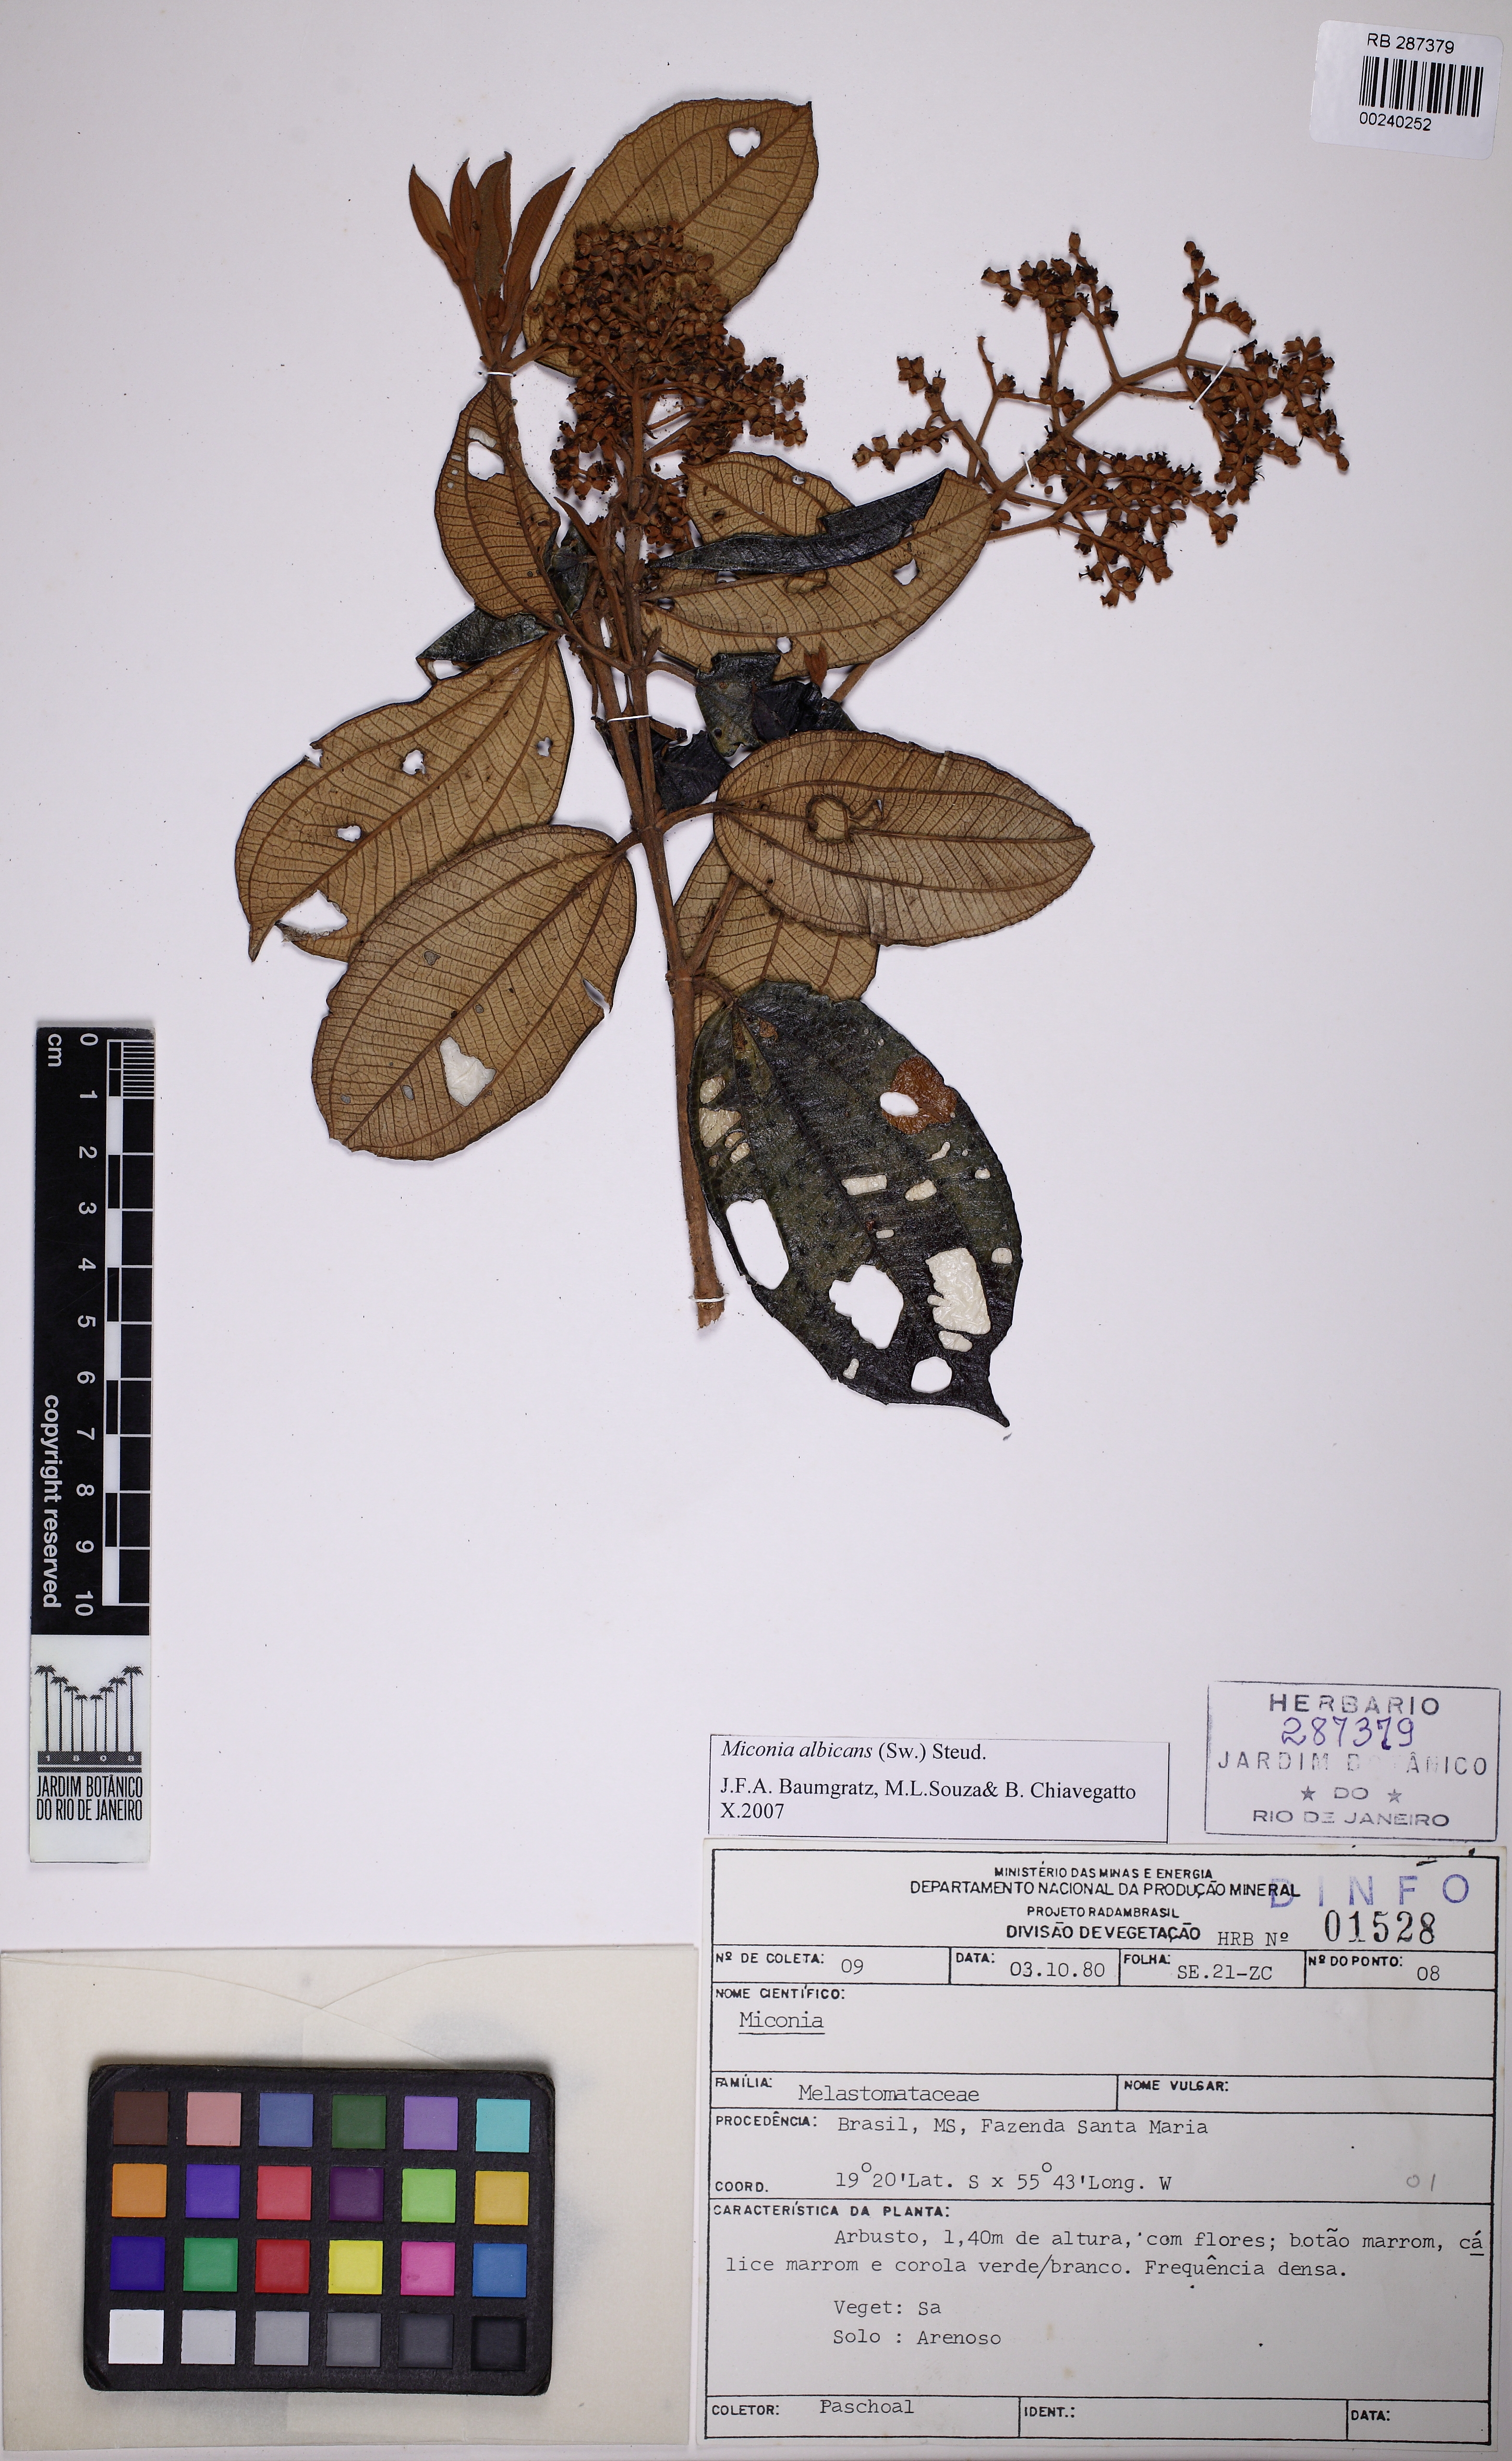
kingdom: Plantae
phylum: Tracheophyta
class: Magnoliopsida
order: Myrtales
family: Melastomataceae
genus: Miconia
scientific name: Miconia albicans
